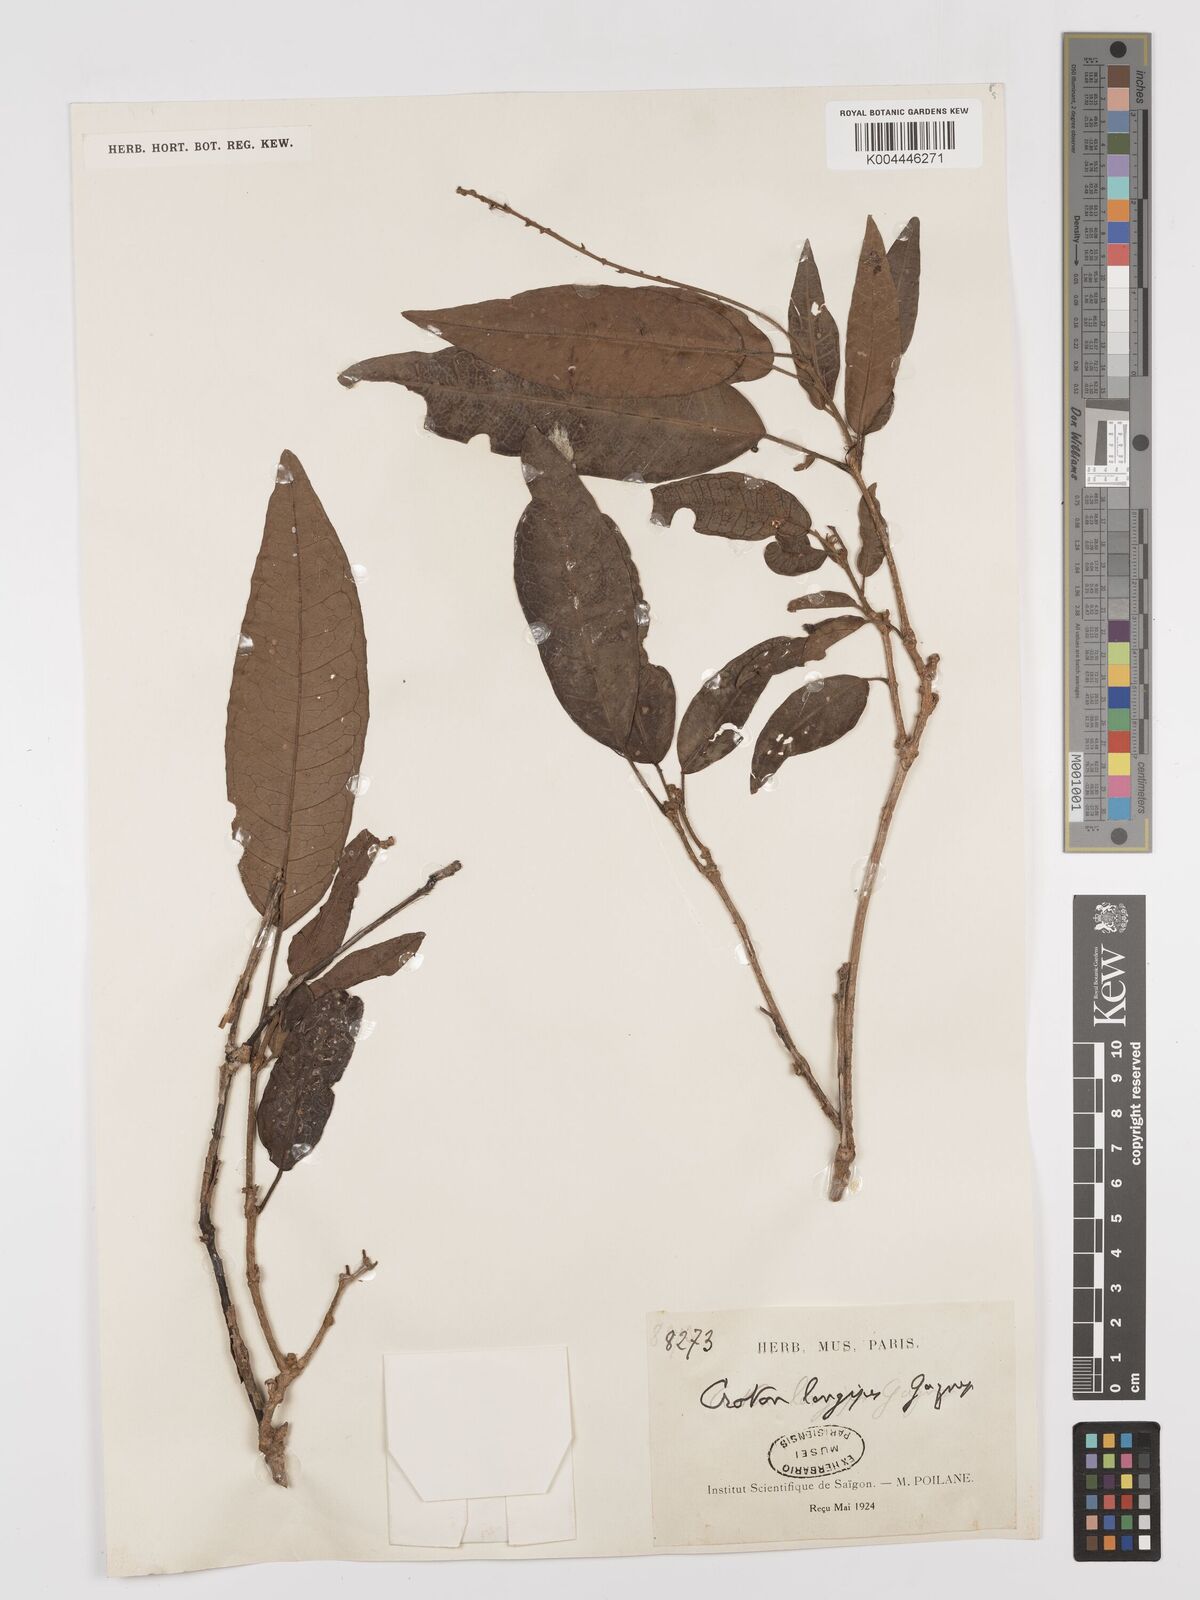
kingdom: Plantae
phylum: Tracheophyta
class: Magnoliopsida
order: Malpighiales
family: Euphorbiaceae
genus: Croton
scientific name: Croton
